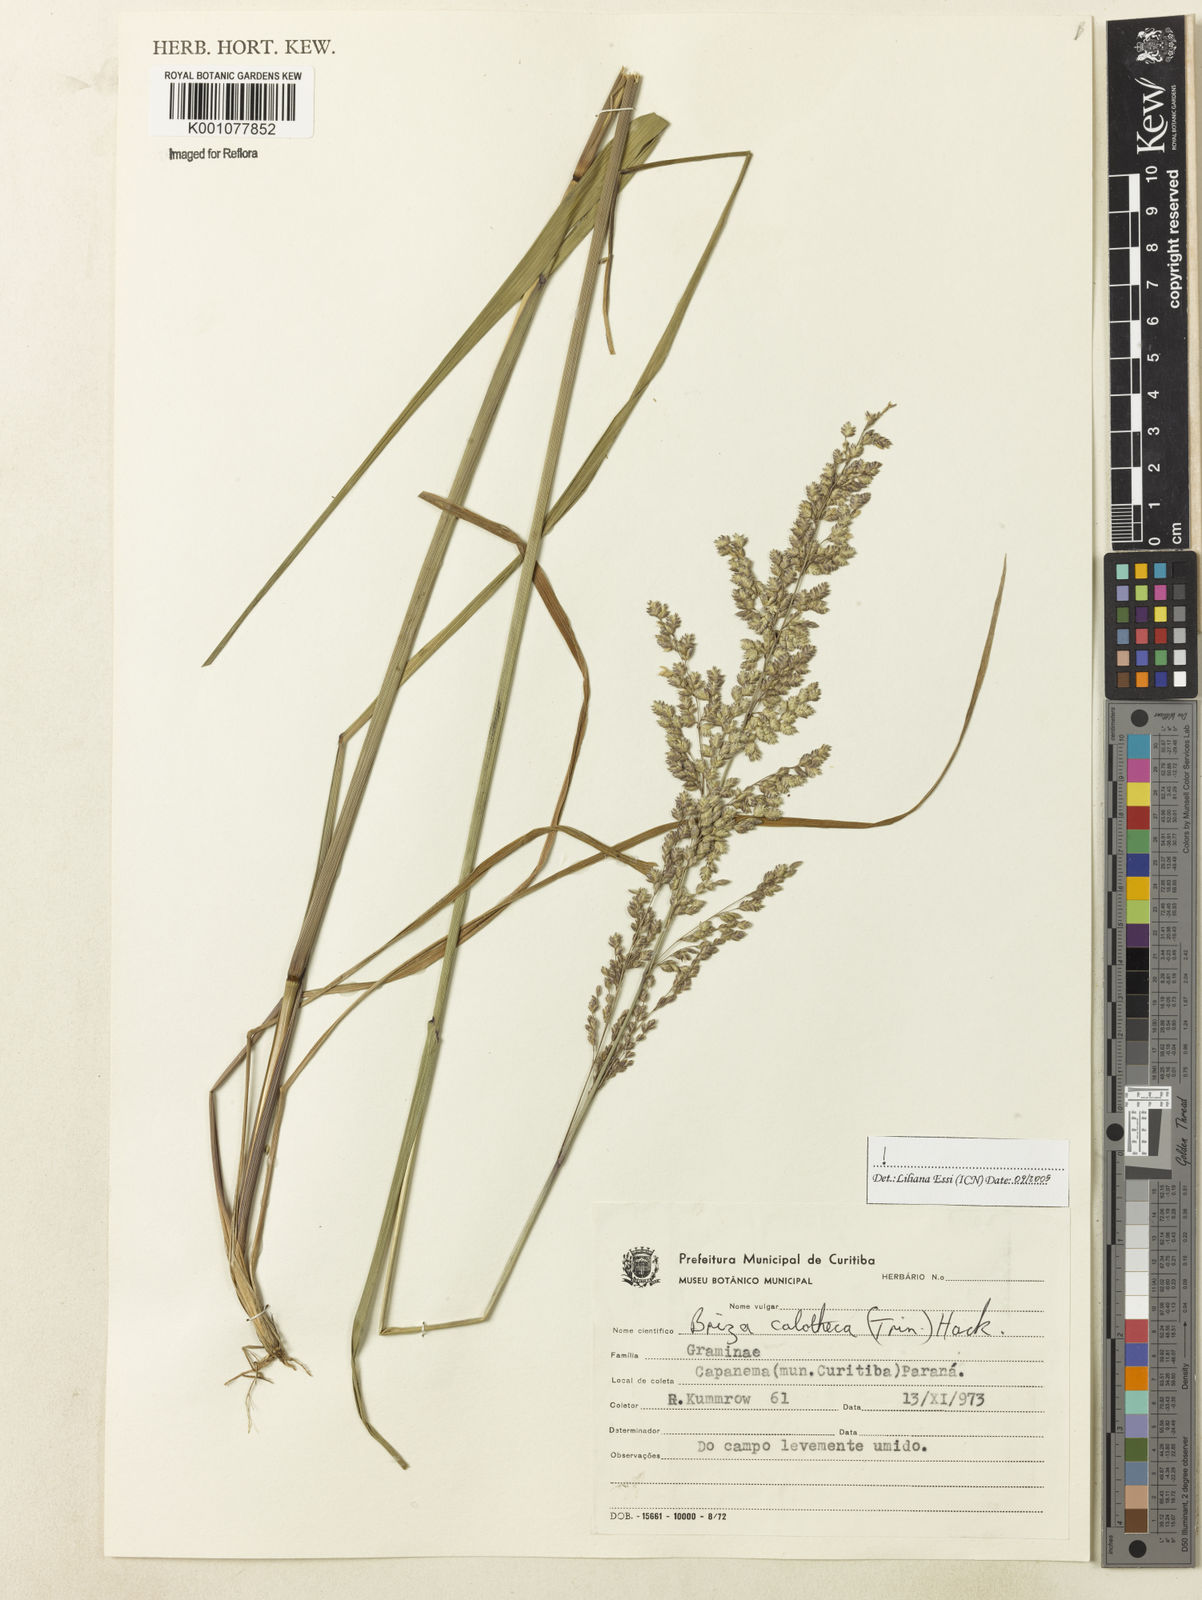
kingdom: Plantae
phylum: Tracheophyta
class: Liliopsida
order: Poales
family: Poaceae
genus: Poidium
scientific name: Poidium calotheca
